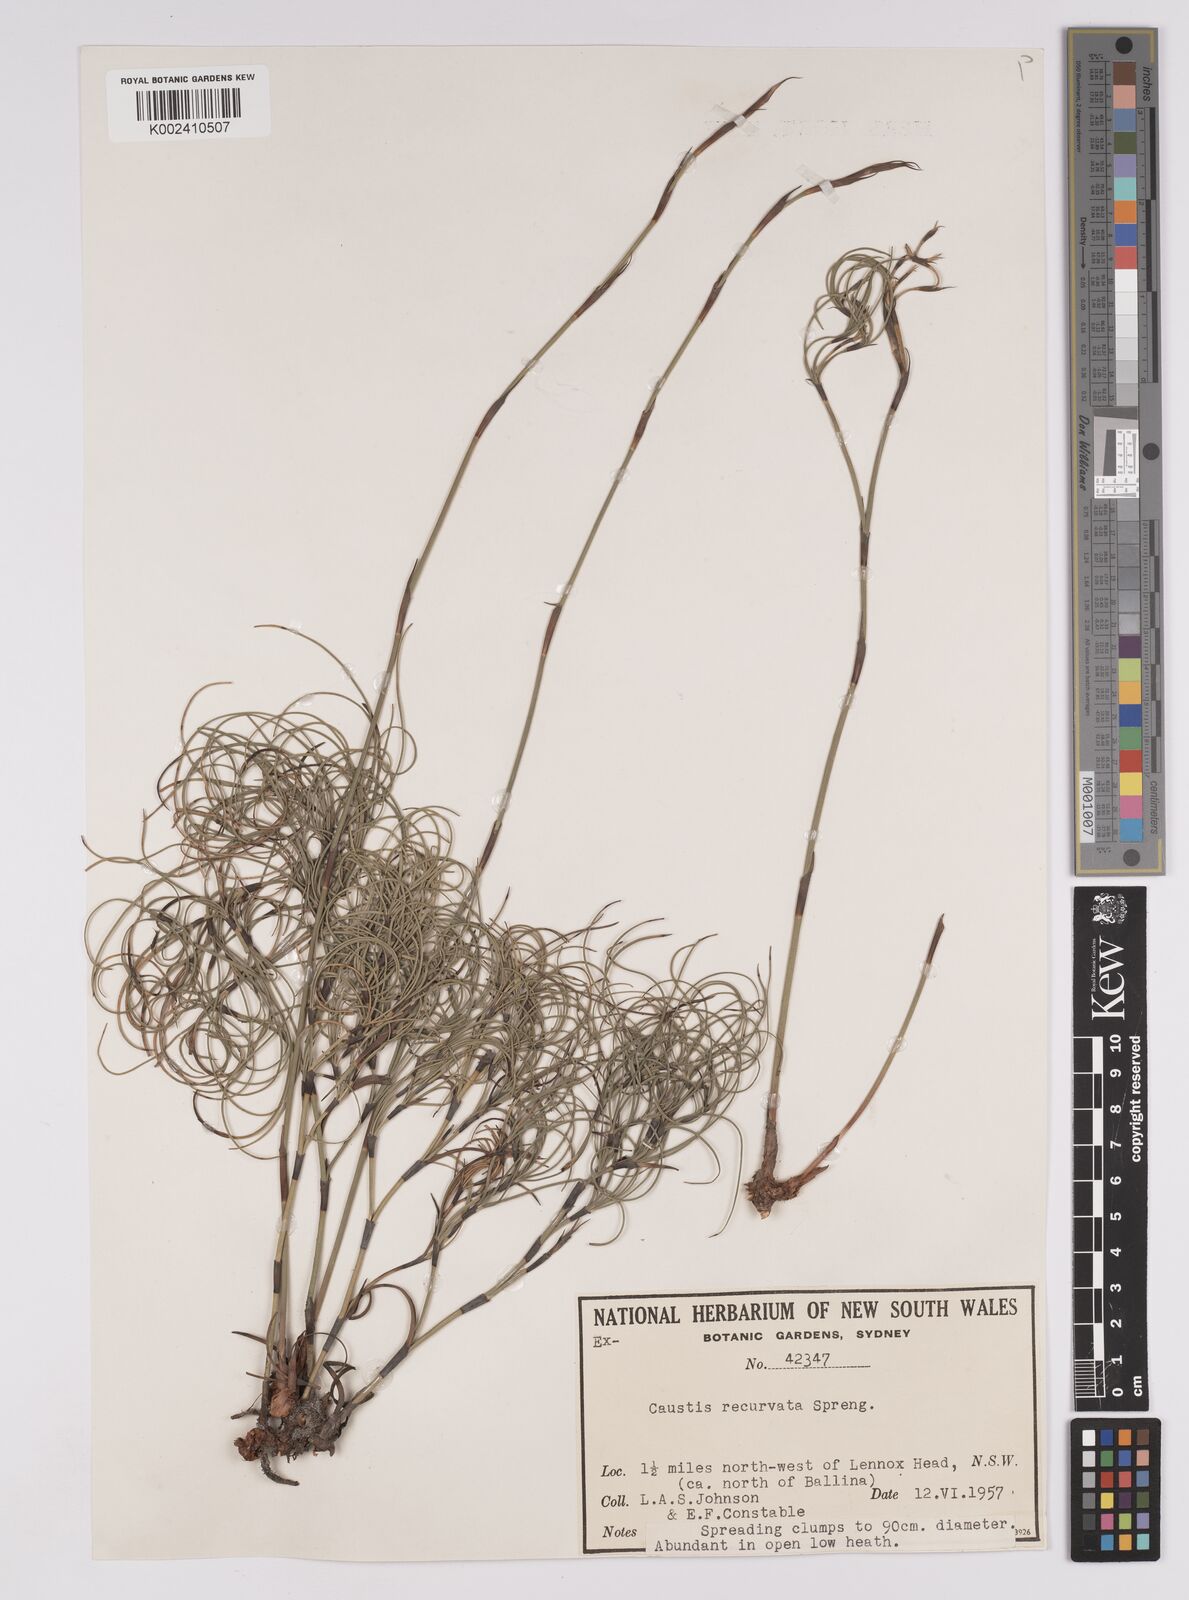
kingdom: Plantae
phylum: Tracheophyta
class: Liliopsida
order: Poales
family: Cyperaceae
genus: Caustis
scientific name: Caustis recurvata
